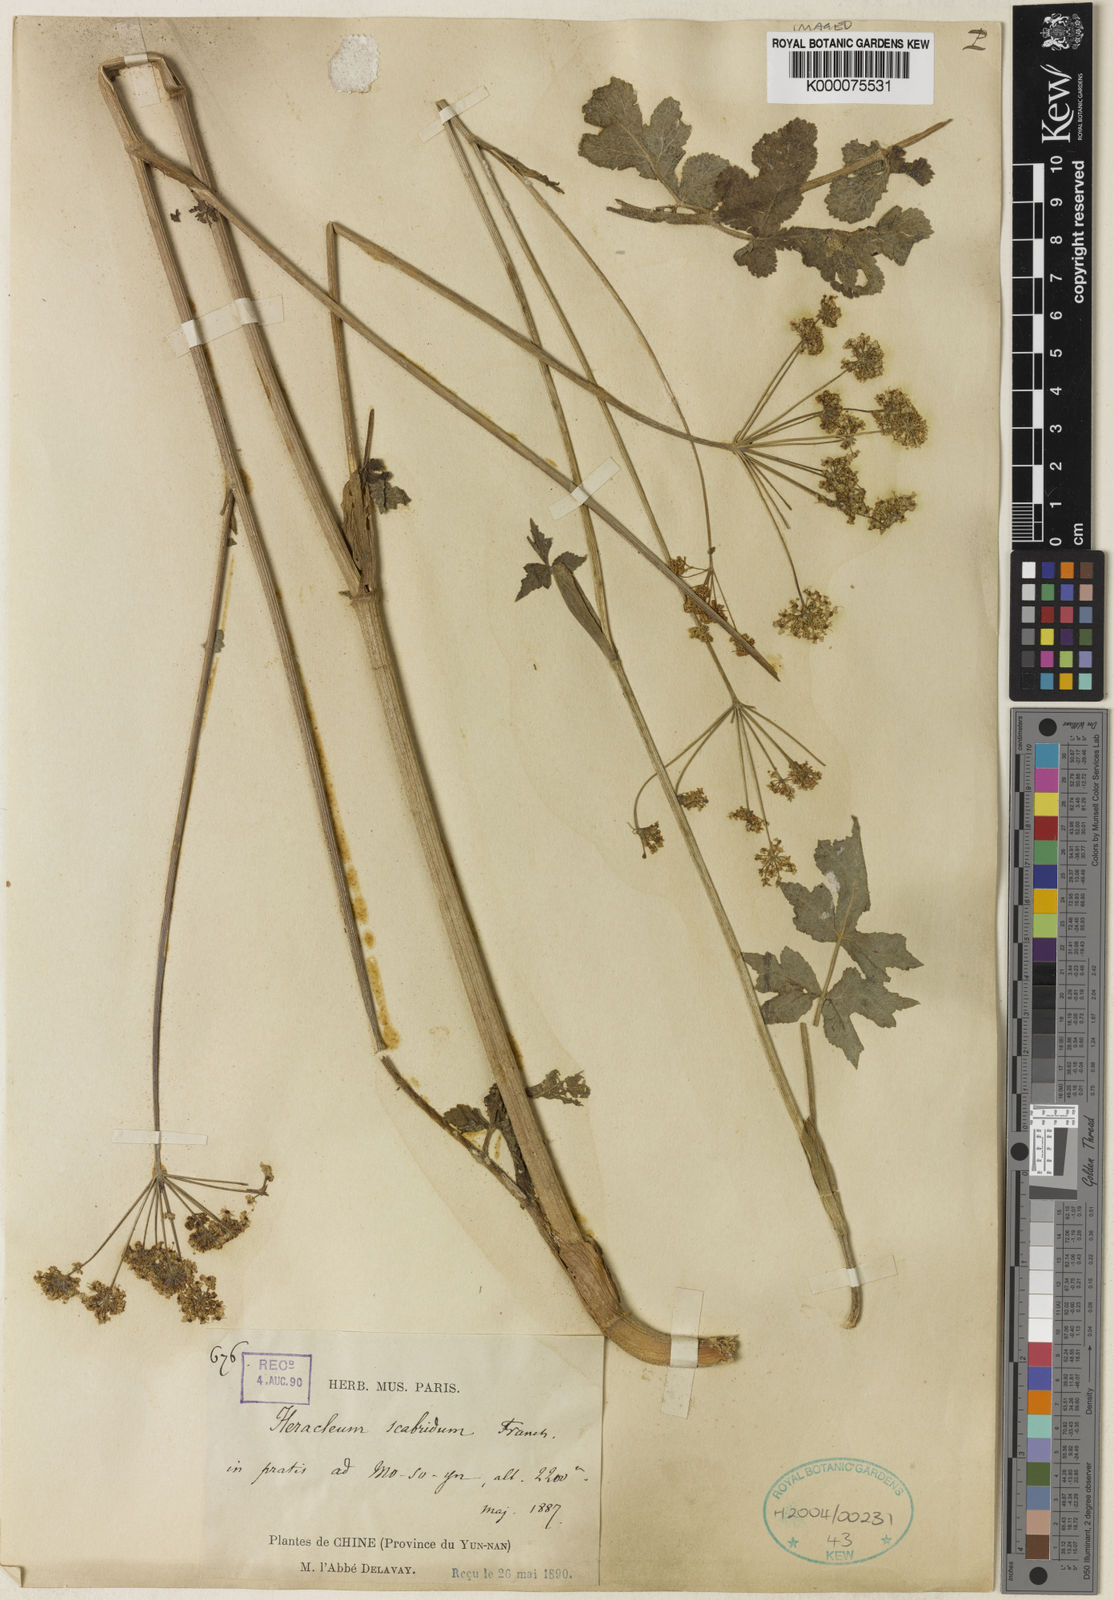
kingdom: Plantae
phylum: Tracheophyta
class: Magnoliopsida
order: Apiales
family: Apiaceae
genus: Heracleum
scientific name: Heracleum scabridum
